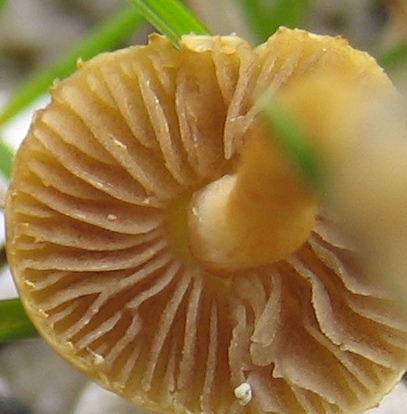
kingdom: Fungi
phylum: Basidiomycota
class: Agaricomycetes
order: Agaricales
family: Strophariaceae
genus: Agrocybe
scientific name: Agrocybe
